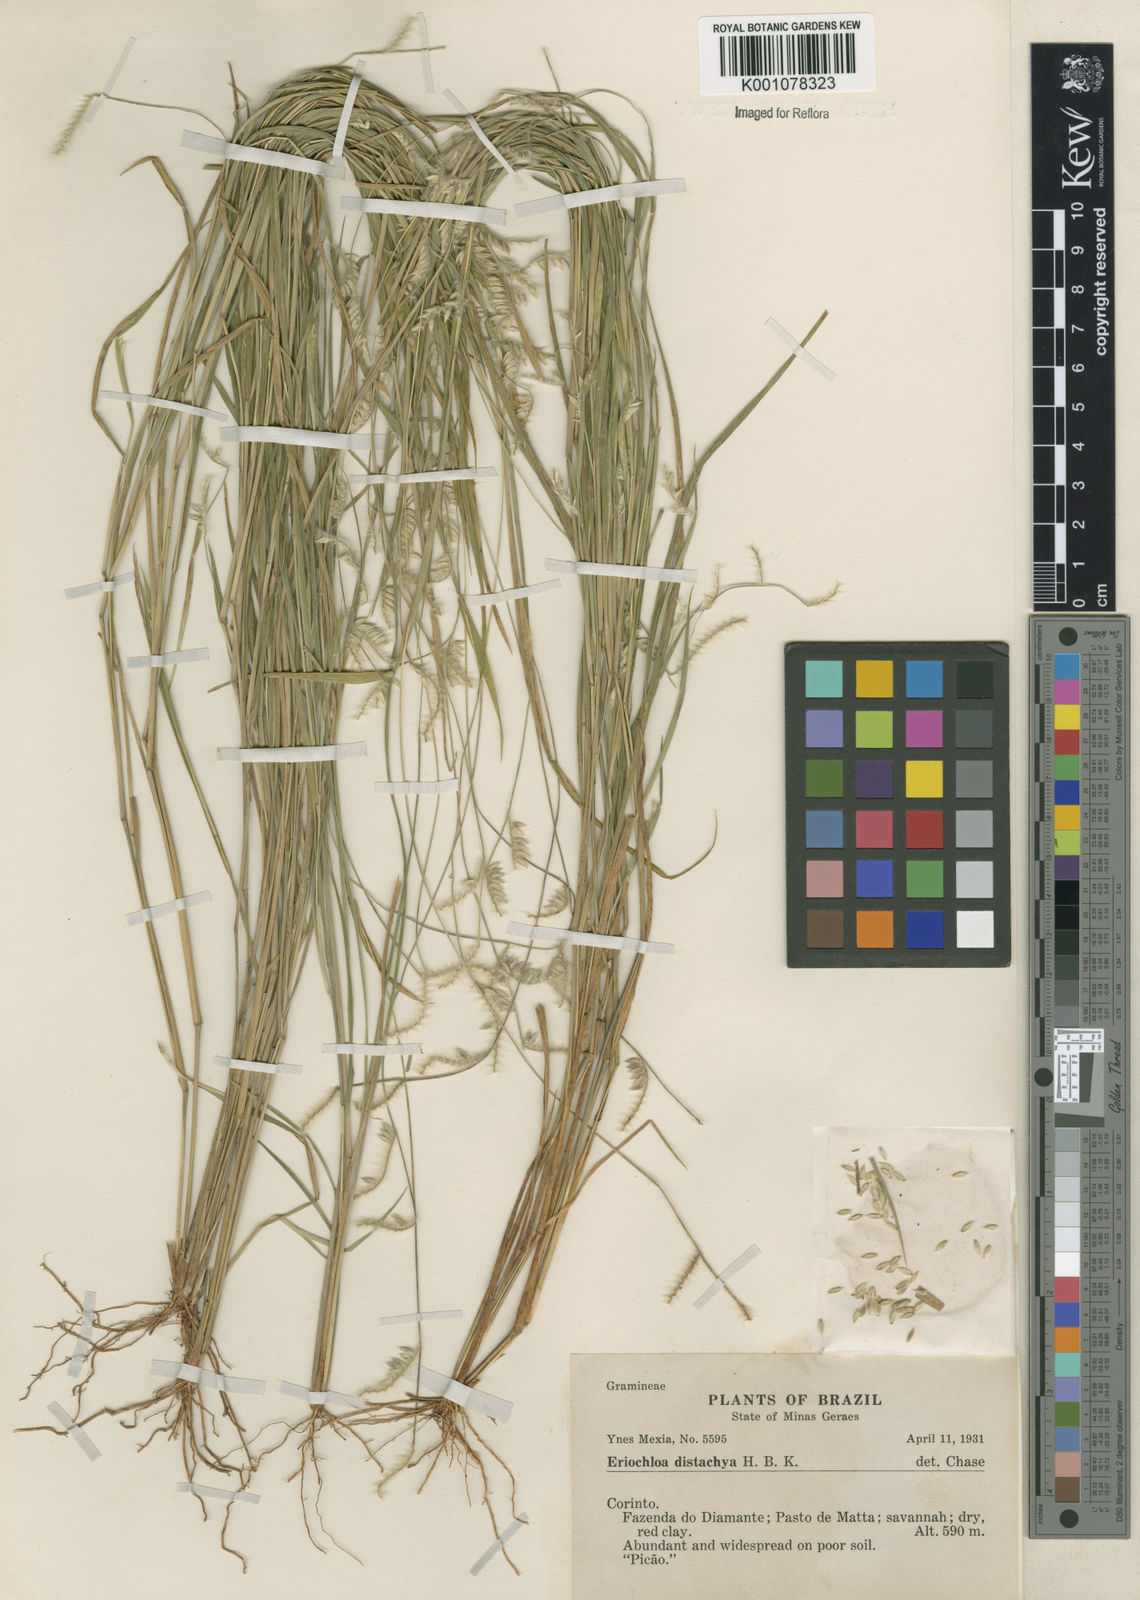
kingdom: Plantae
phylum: Tracheophyta
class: Liliopsida
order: Poales
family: Poaceae
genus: Eriochloa
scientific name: Eriochloa distachya
